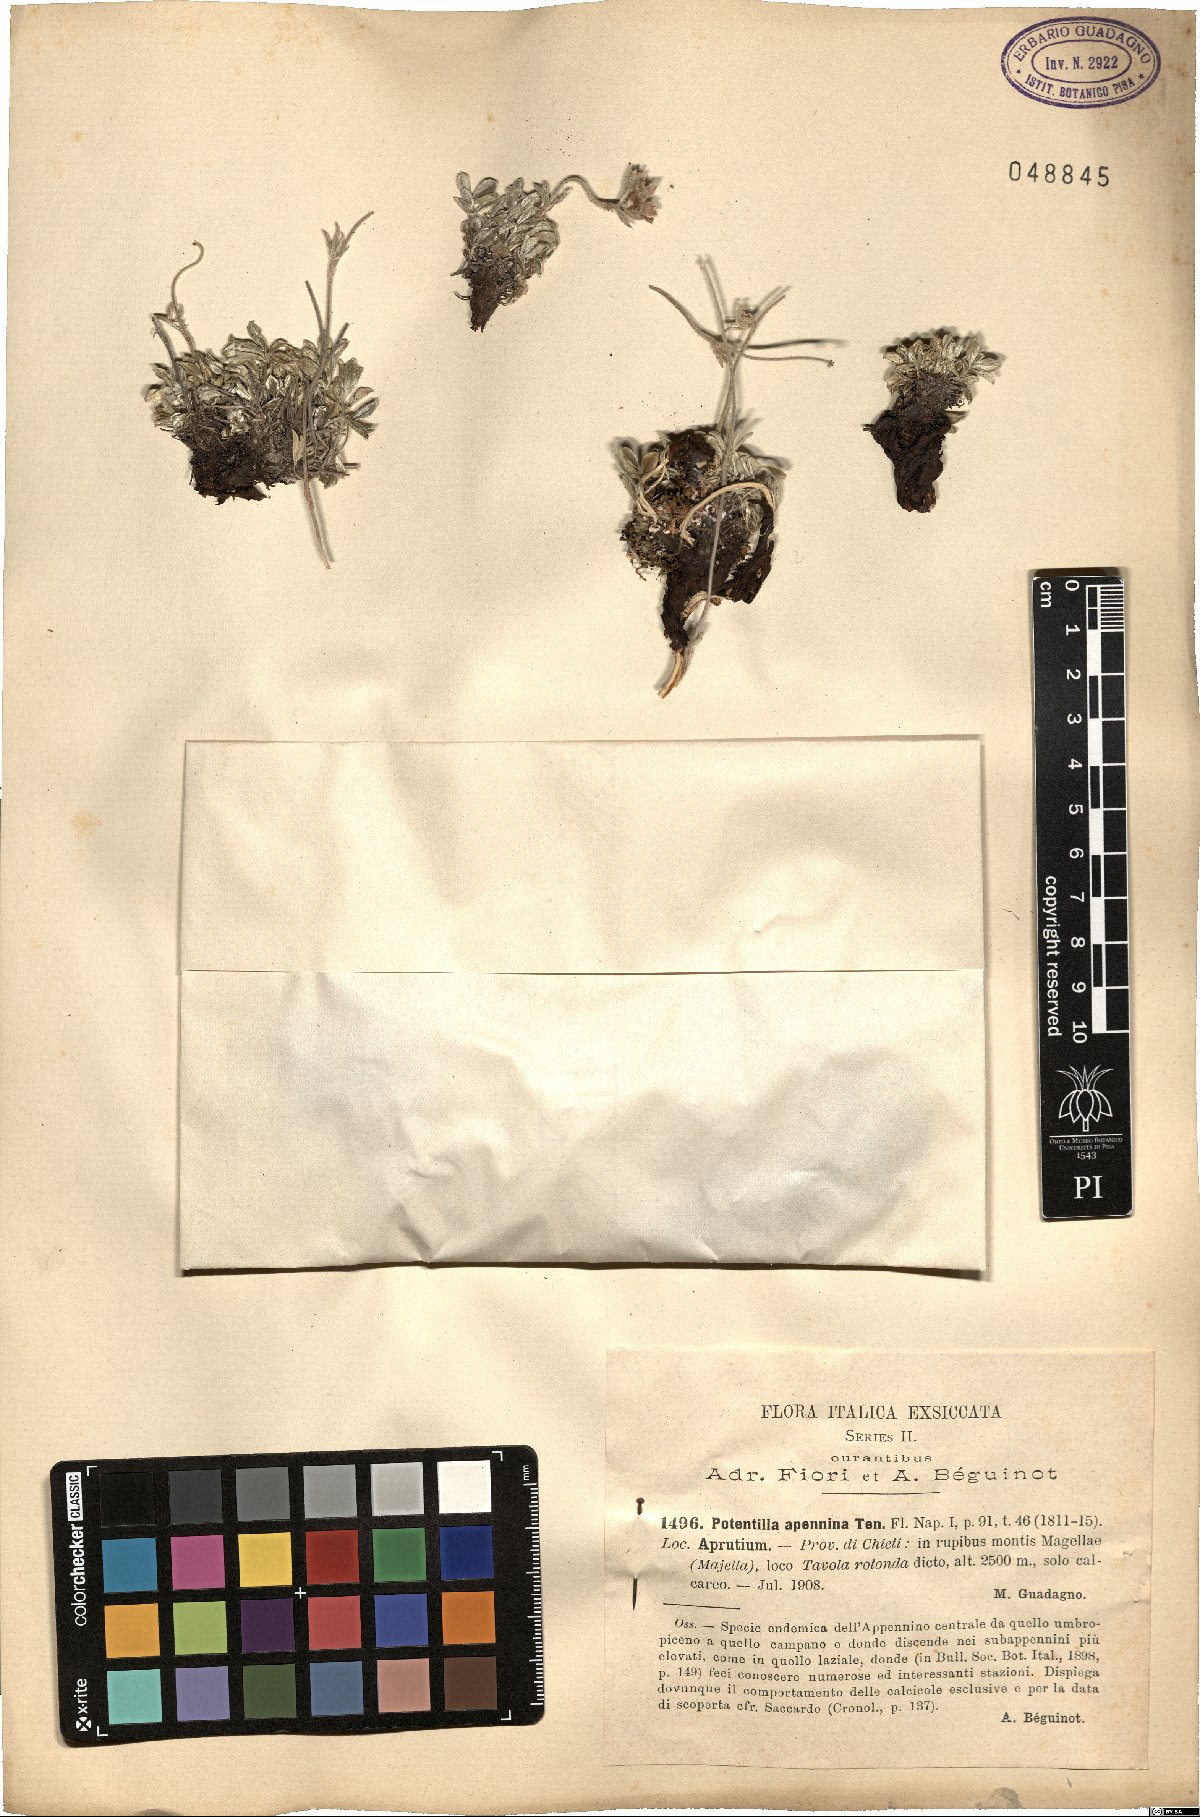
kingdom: Plantae
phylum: Tracheophyta
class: Magnoliopsida
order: Rosales
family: Rosaceae
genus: Potentilla
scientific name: Potentilla apennina
